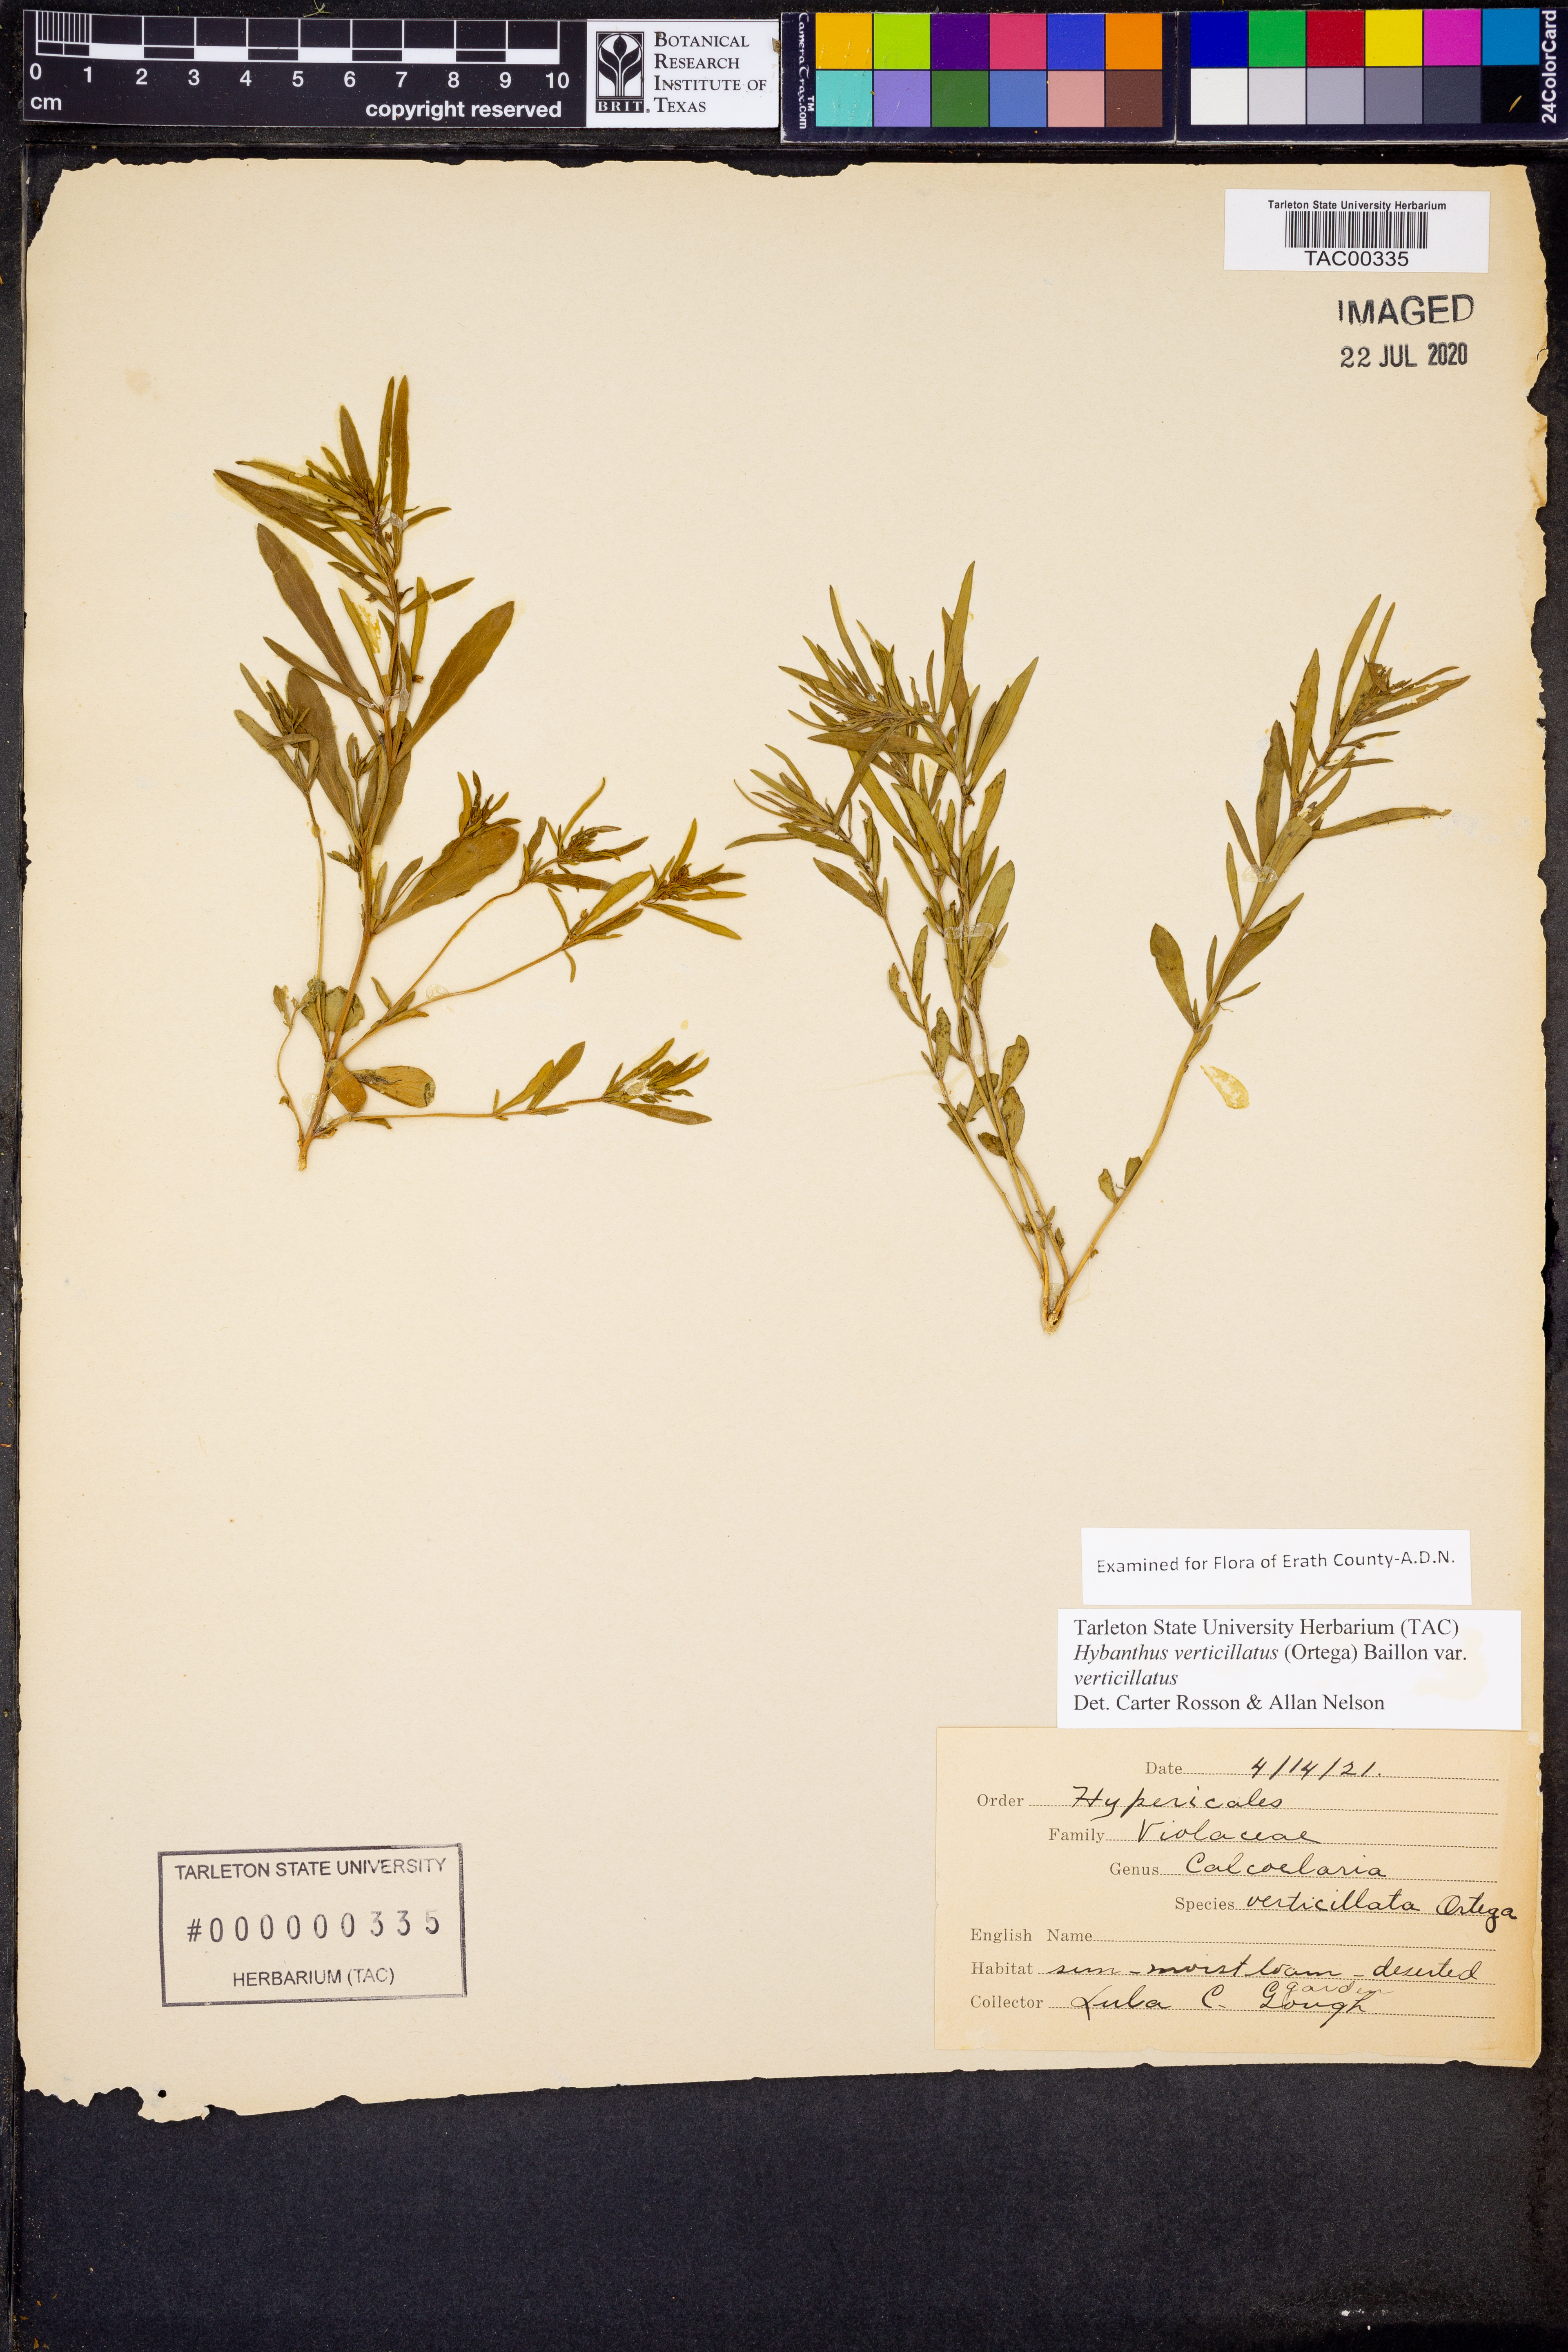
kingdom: Plantae
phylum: Tracheophyta
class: Magnoliopsida
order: Malpighiales
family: Violaceae
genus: Pombalia
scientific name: Pombalia verticillata
